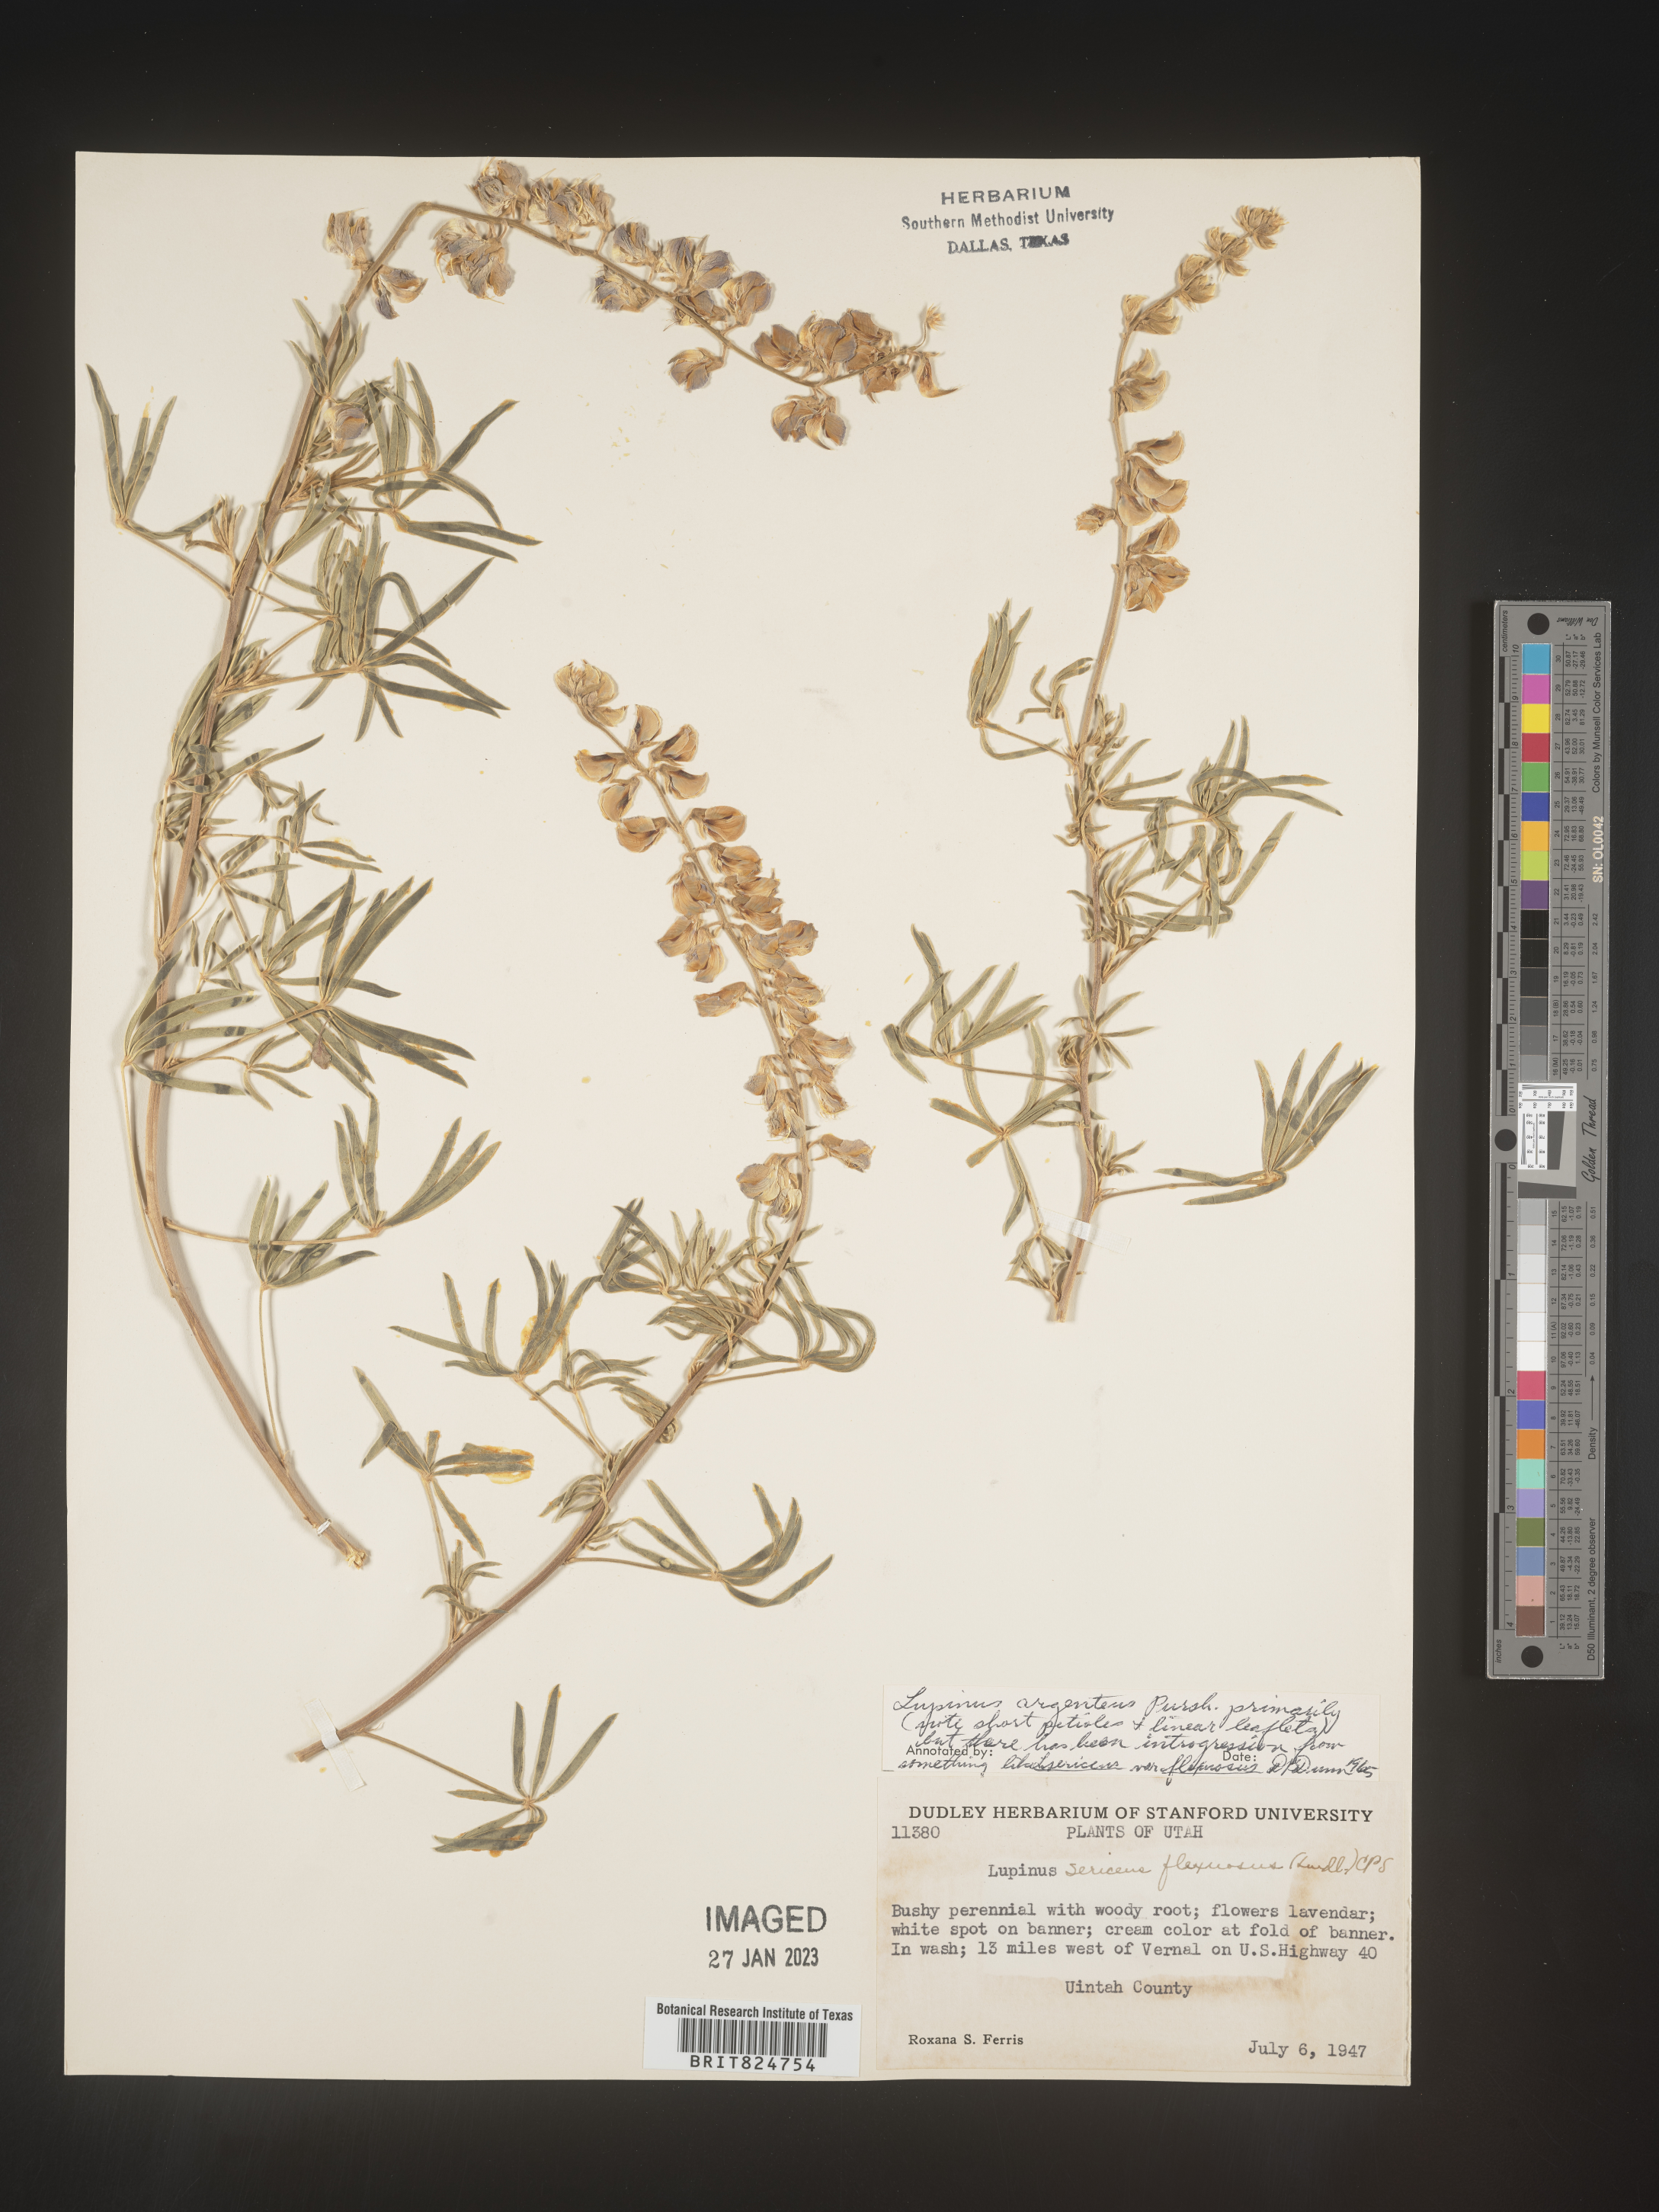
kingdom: Plantae
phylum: Tracheophyta
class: Magnoliopsida
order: Fabales
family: Fabaceae
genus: Lupinus
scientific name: Lupinus argenteus
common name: Silvery lupine
